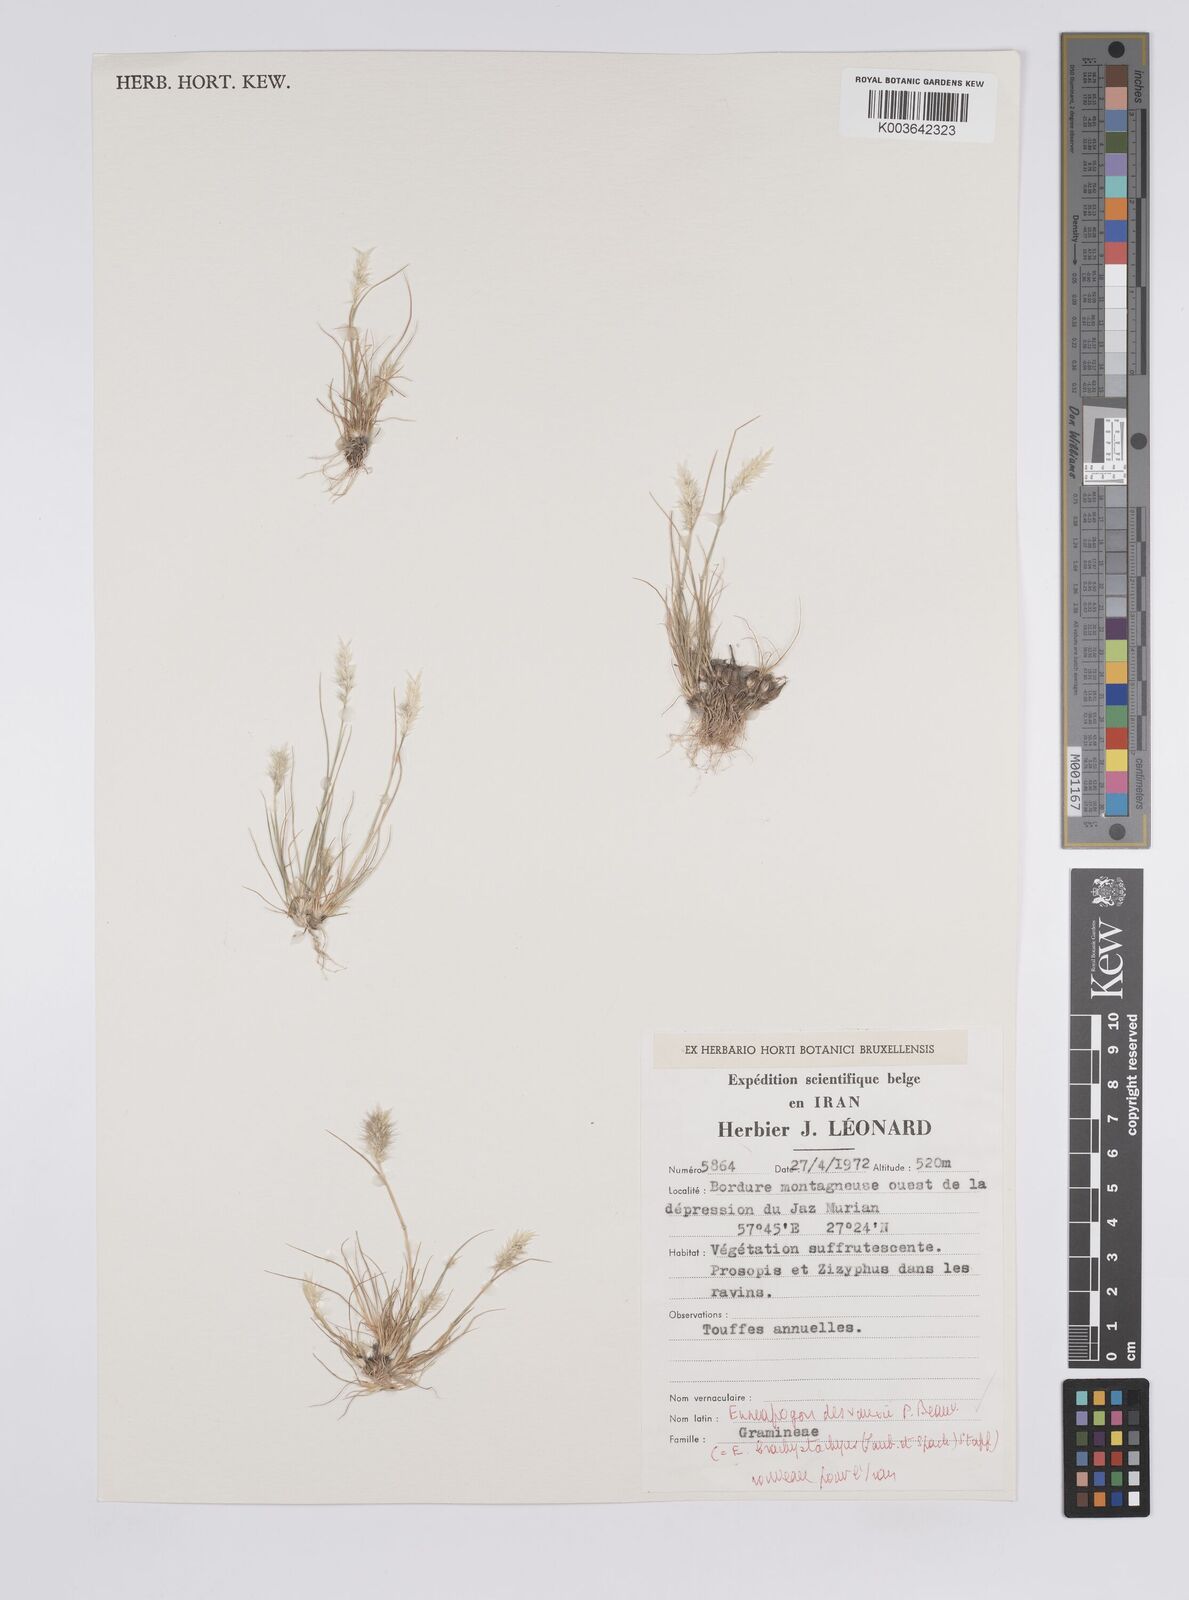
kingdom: Plantae
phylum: Tracheophyta
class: Liliopsida
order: Poales
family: Poaceae
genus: Enneapogon
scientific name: Enneapogon desvauxii
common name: Feather pappus grass
